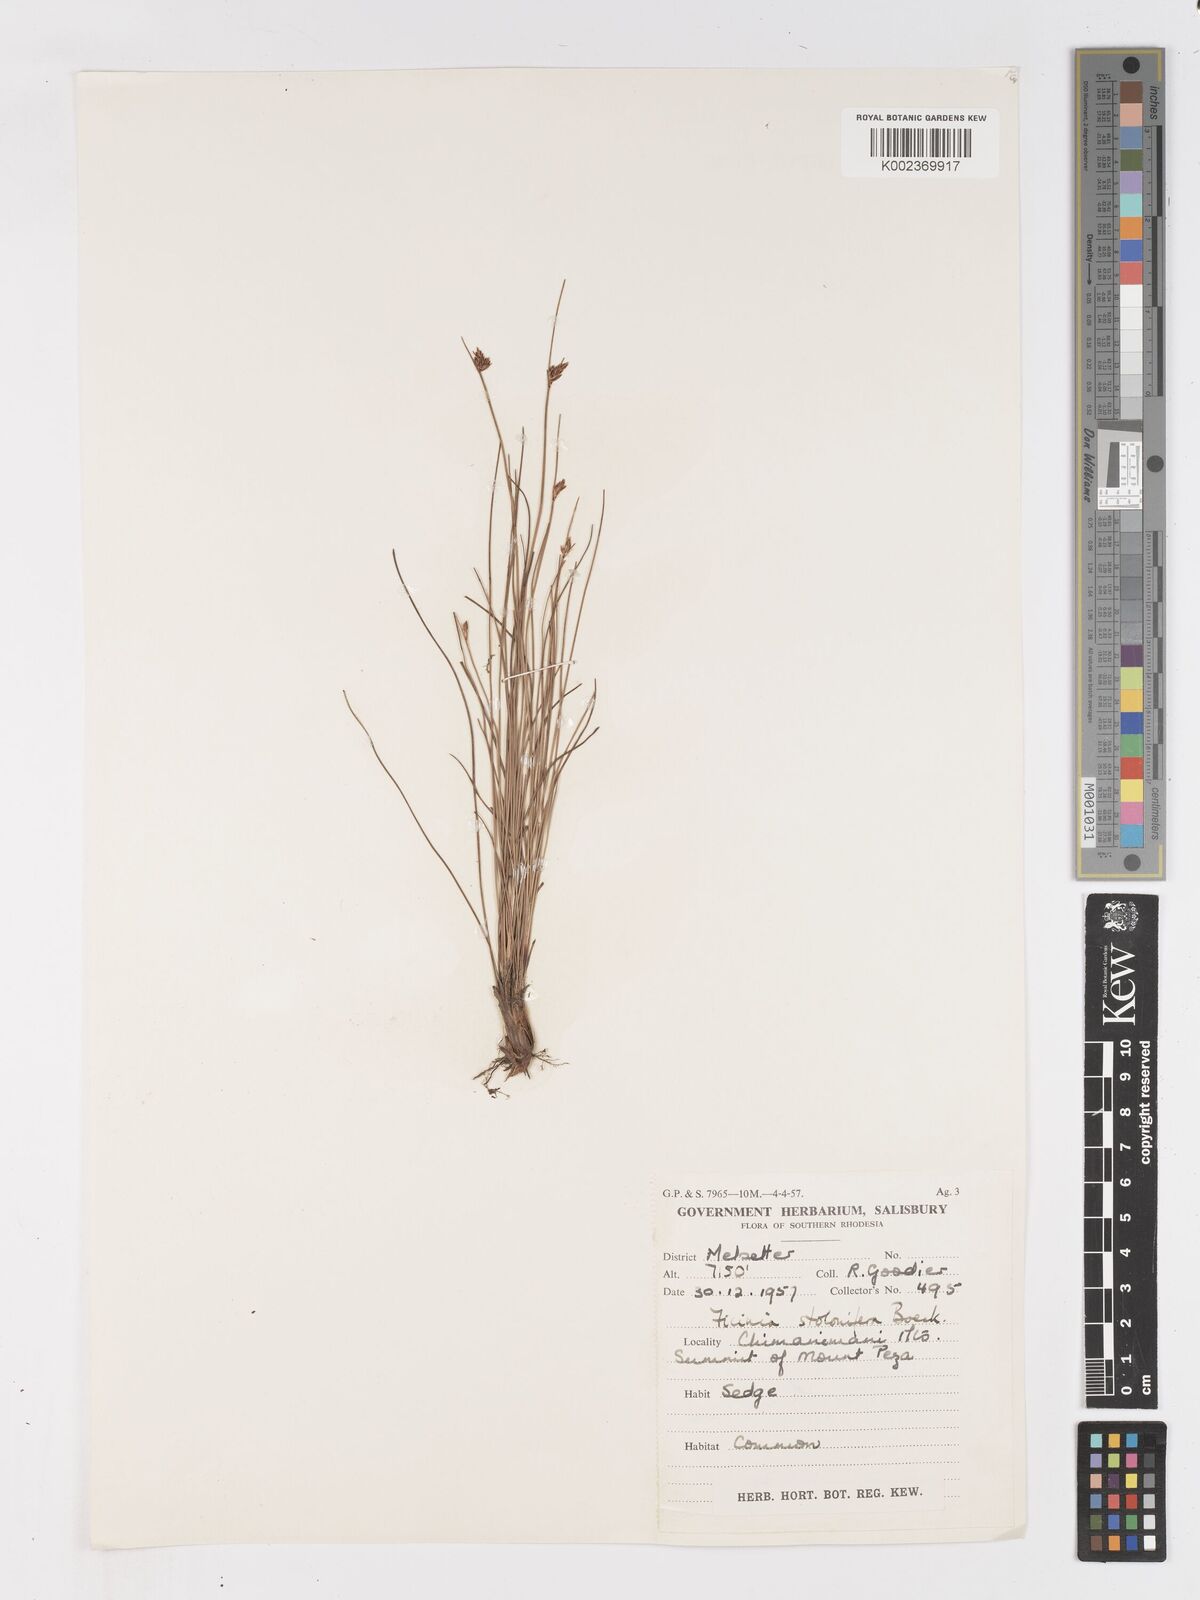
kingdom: Plantae
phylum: Tracheophyta
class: Liliopsida
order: Poales
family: Cyperaceae
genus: Ficinia
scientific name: Ficinia stolonifera
